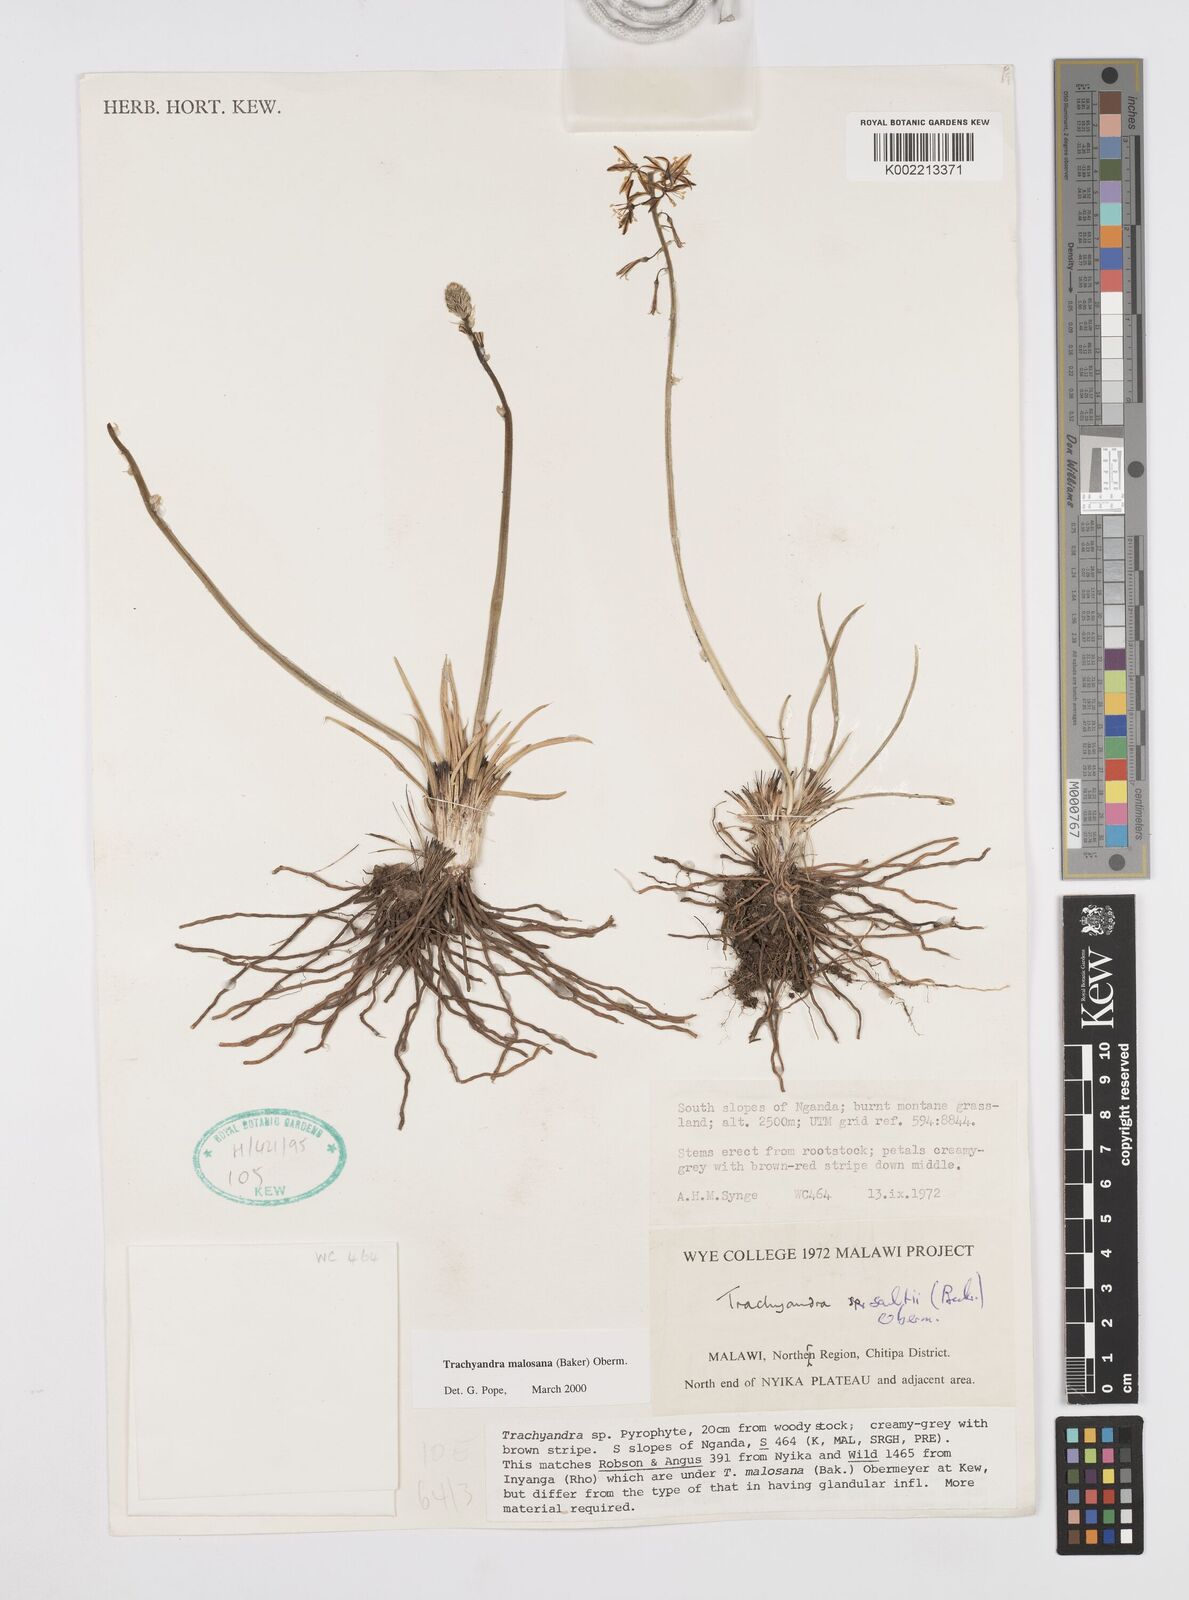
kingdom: Plantae
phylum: Tracheophyta
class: Liliopsida
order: Asparagales
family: Asphodelaceae
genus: Trachyandra
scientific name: Trachyandra malosana
